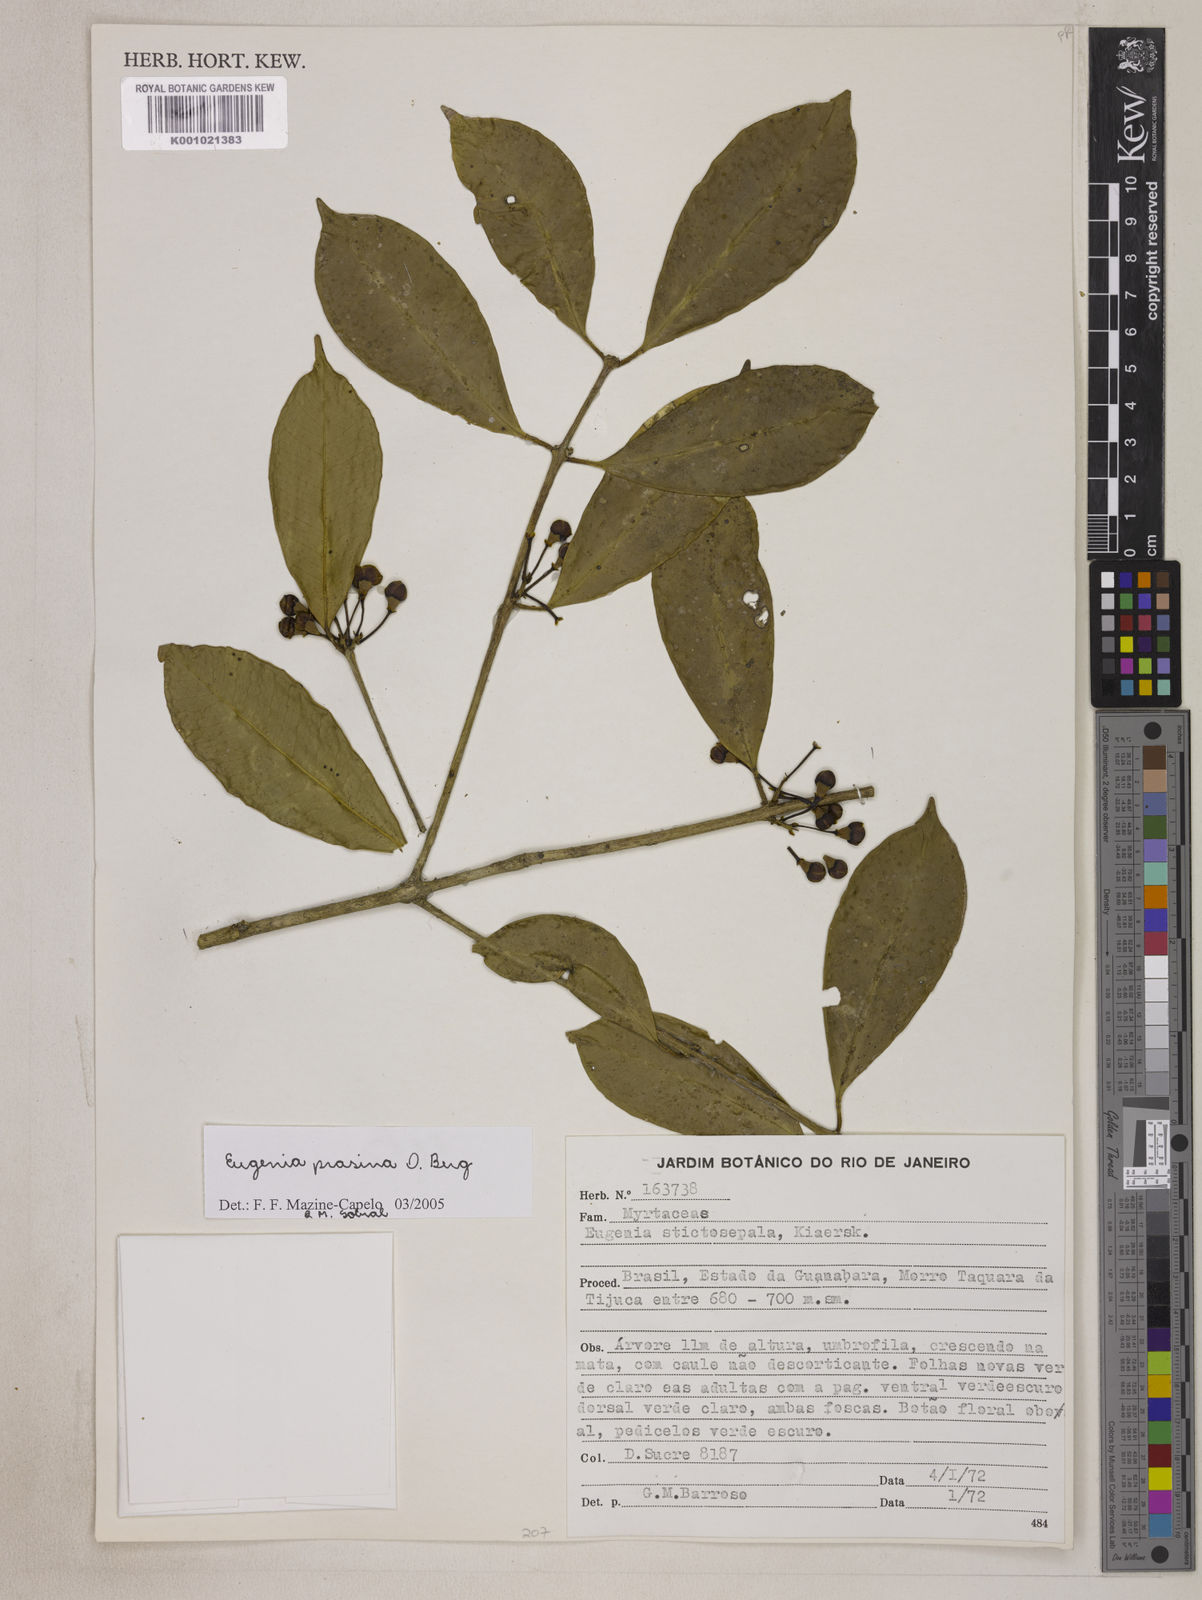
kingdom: Plantae
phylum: Tracheophyta
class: Magnoliopsida
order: Myrtales
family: Myrtaceae
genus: Eugenia
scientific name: Eugenia prasina
